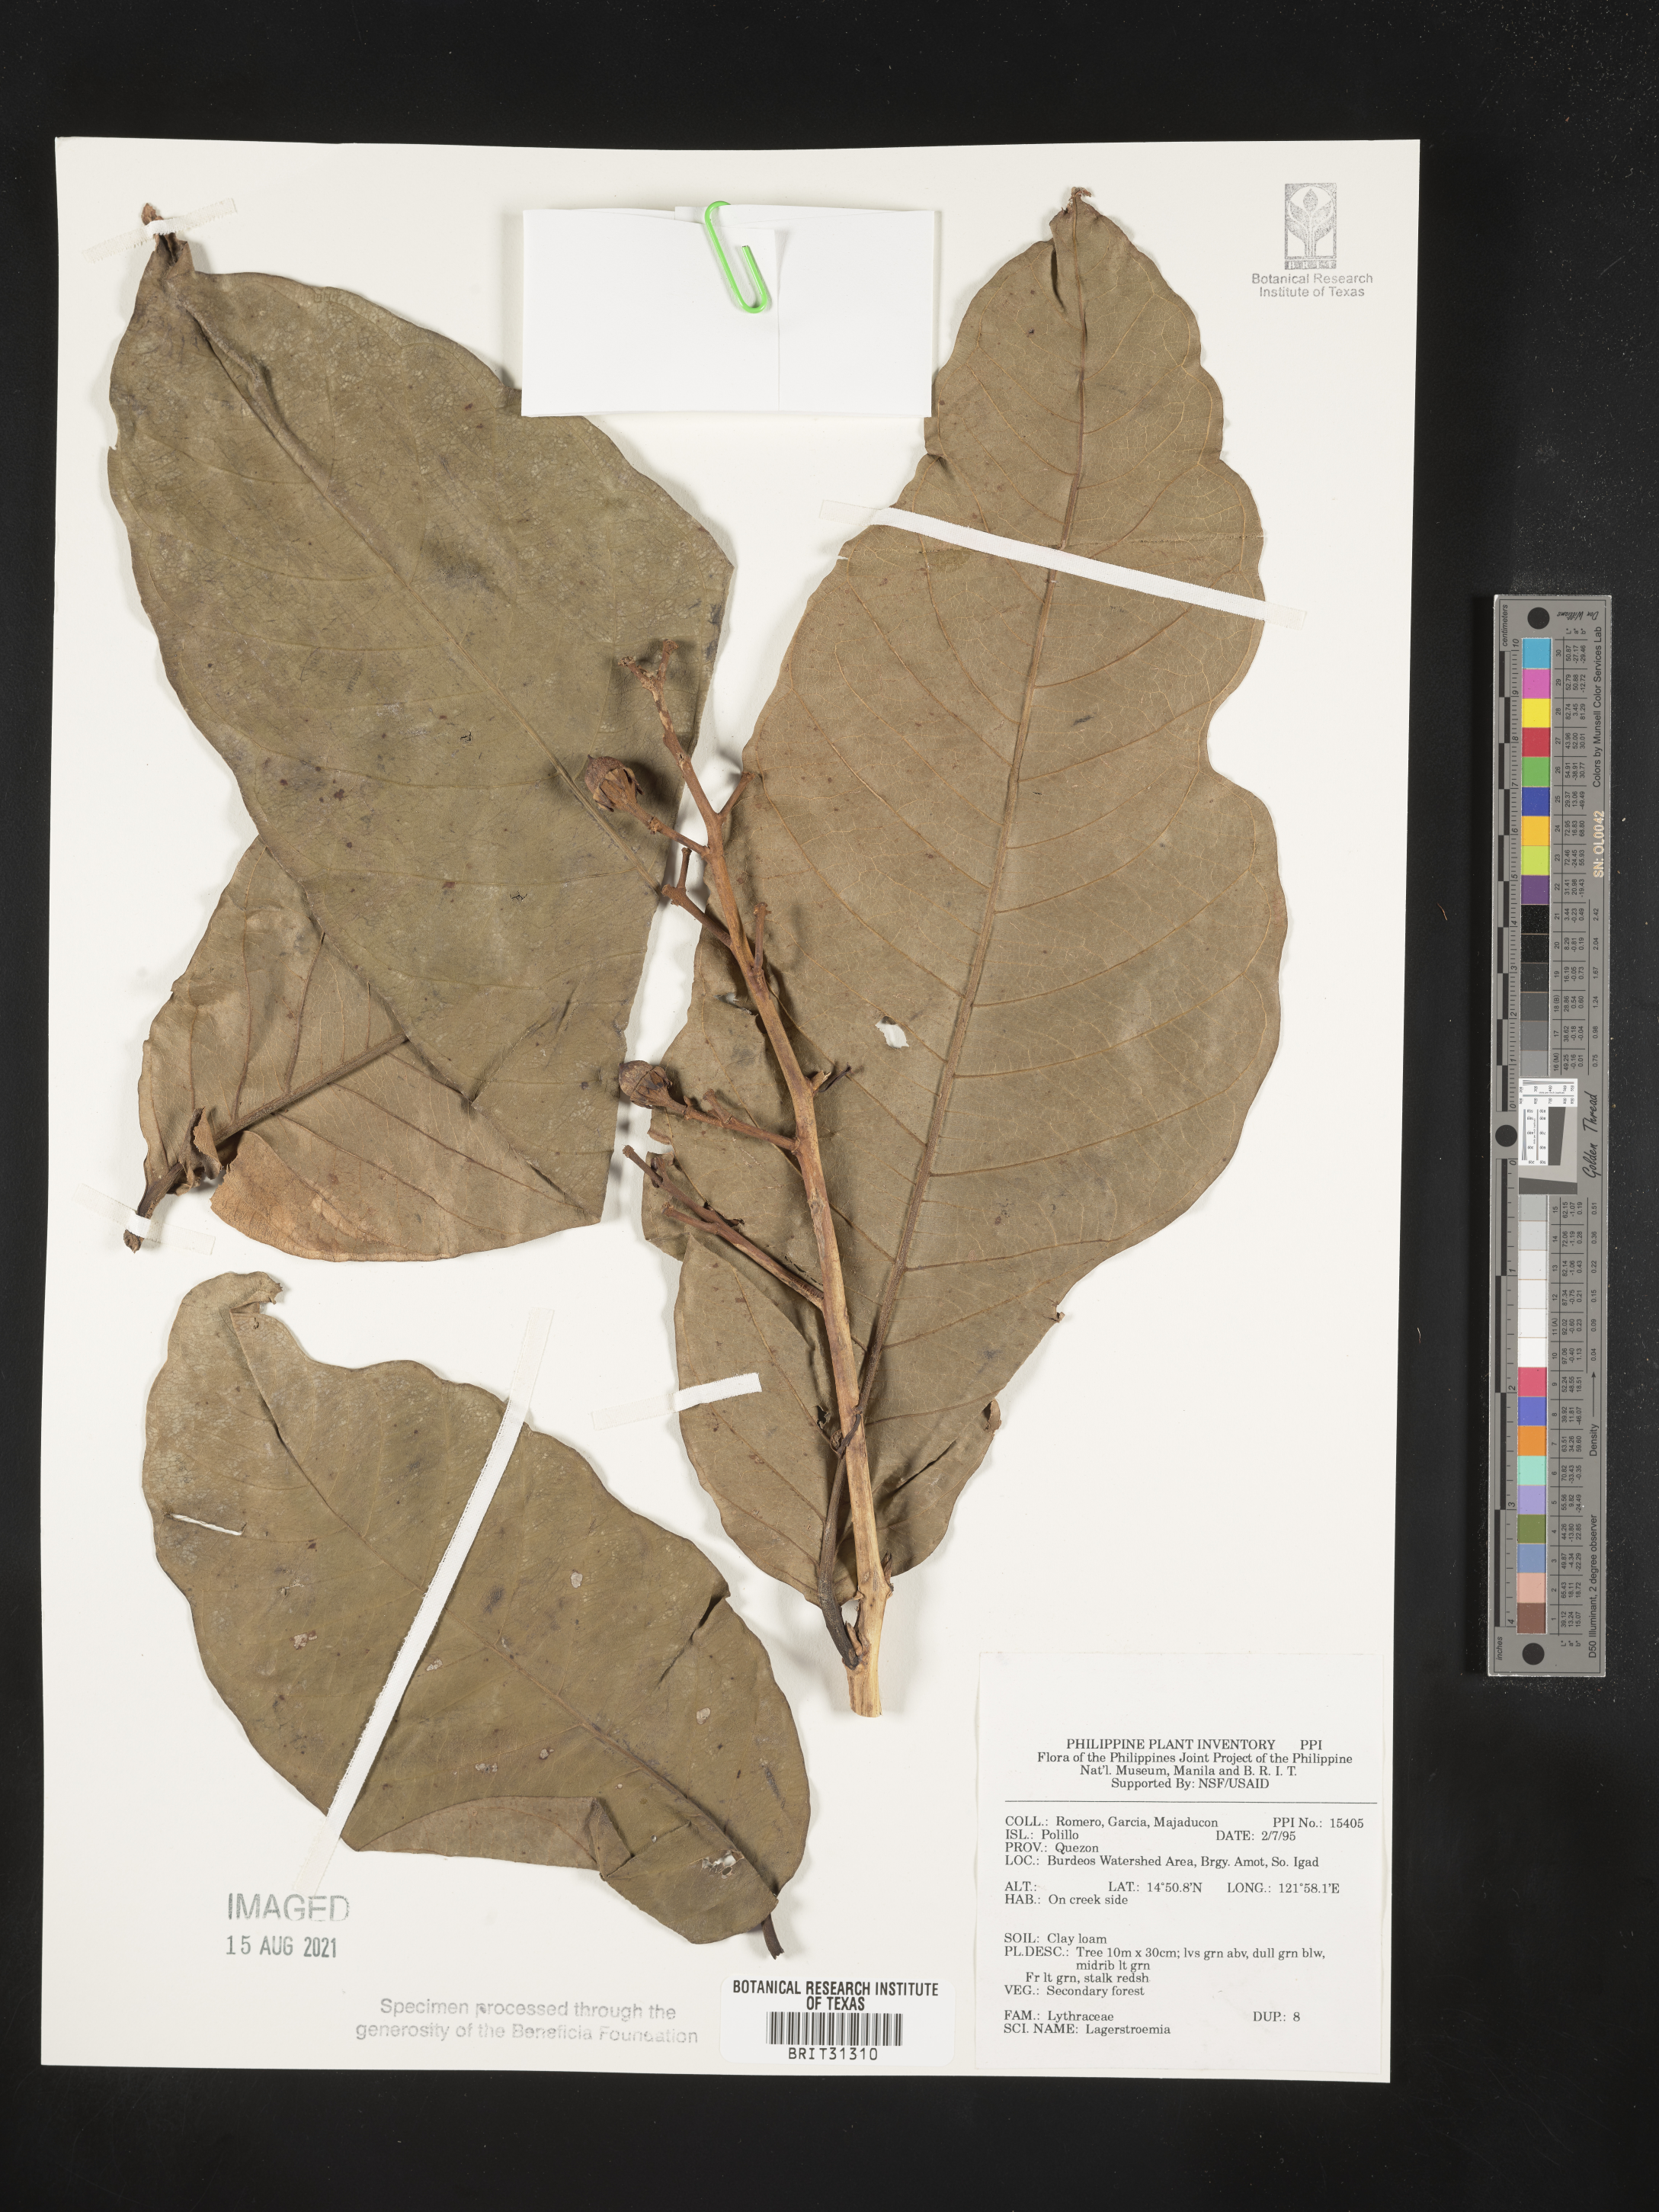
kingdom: Plantae
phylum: Tracheophyta
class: Magnoliopsida
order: Myrtales
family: Lythraceae
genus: Lagerstroemia
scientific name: Lagerstroemia
